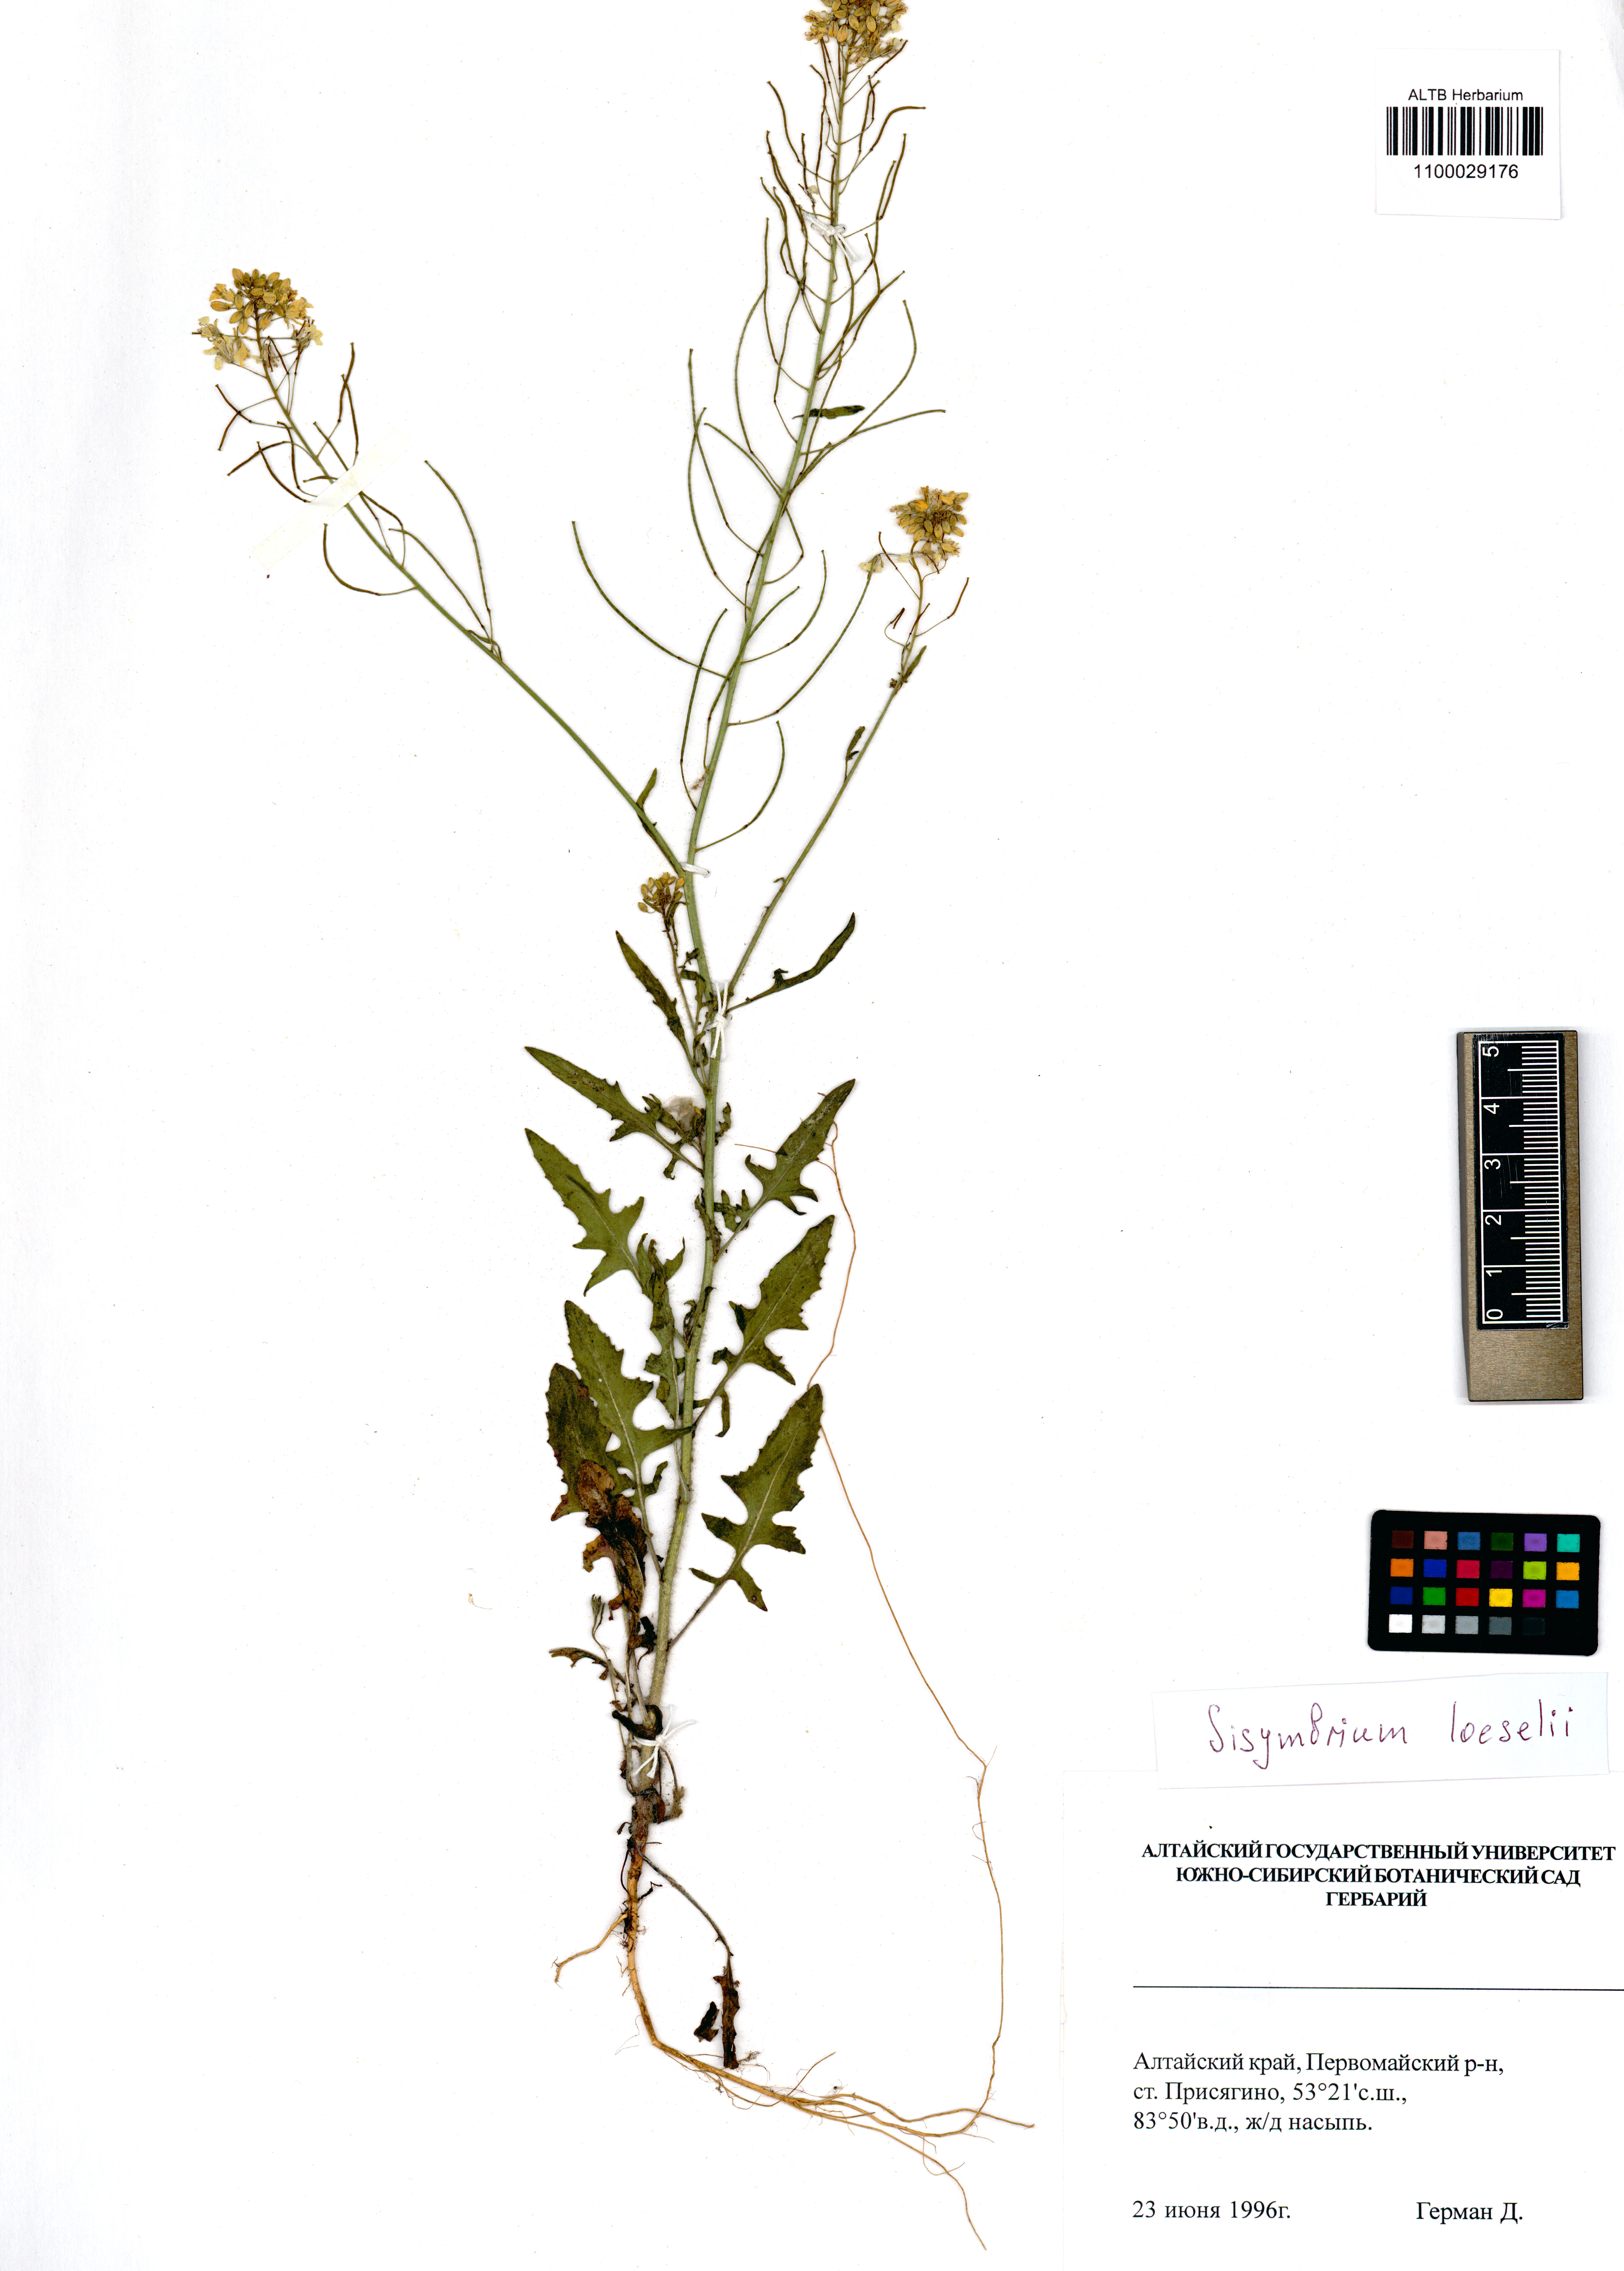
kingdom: Plantae
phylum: Tracheophyta
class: Magnoliopsida
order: Brassicales
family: Brassicaceae
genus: Sisymbrium
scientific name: Sisymbrium loeselii
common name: False london-rocket
